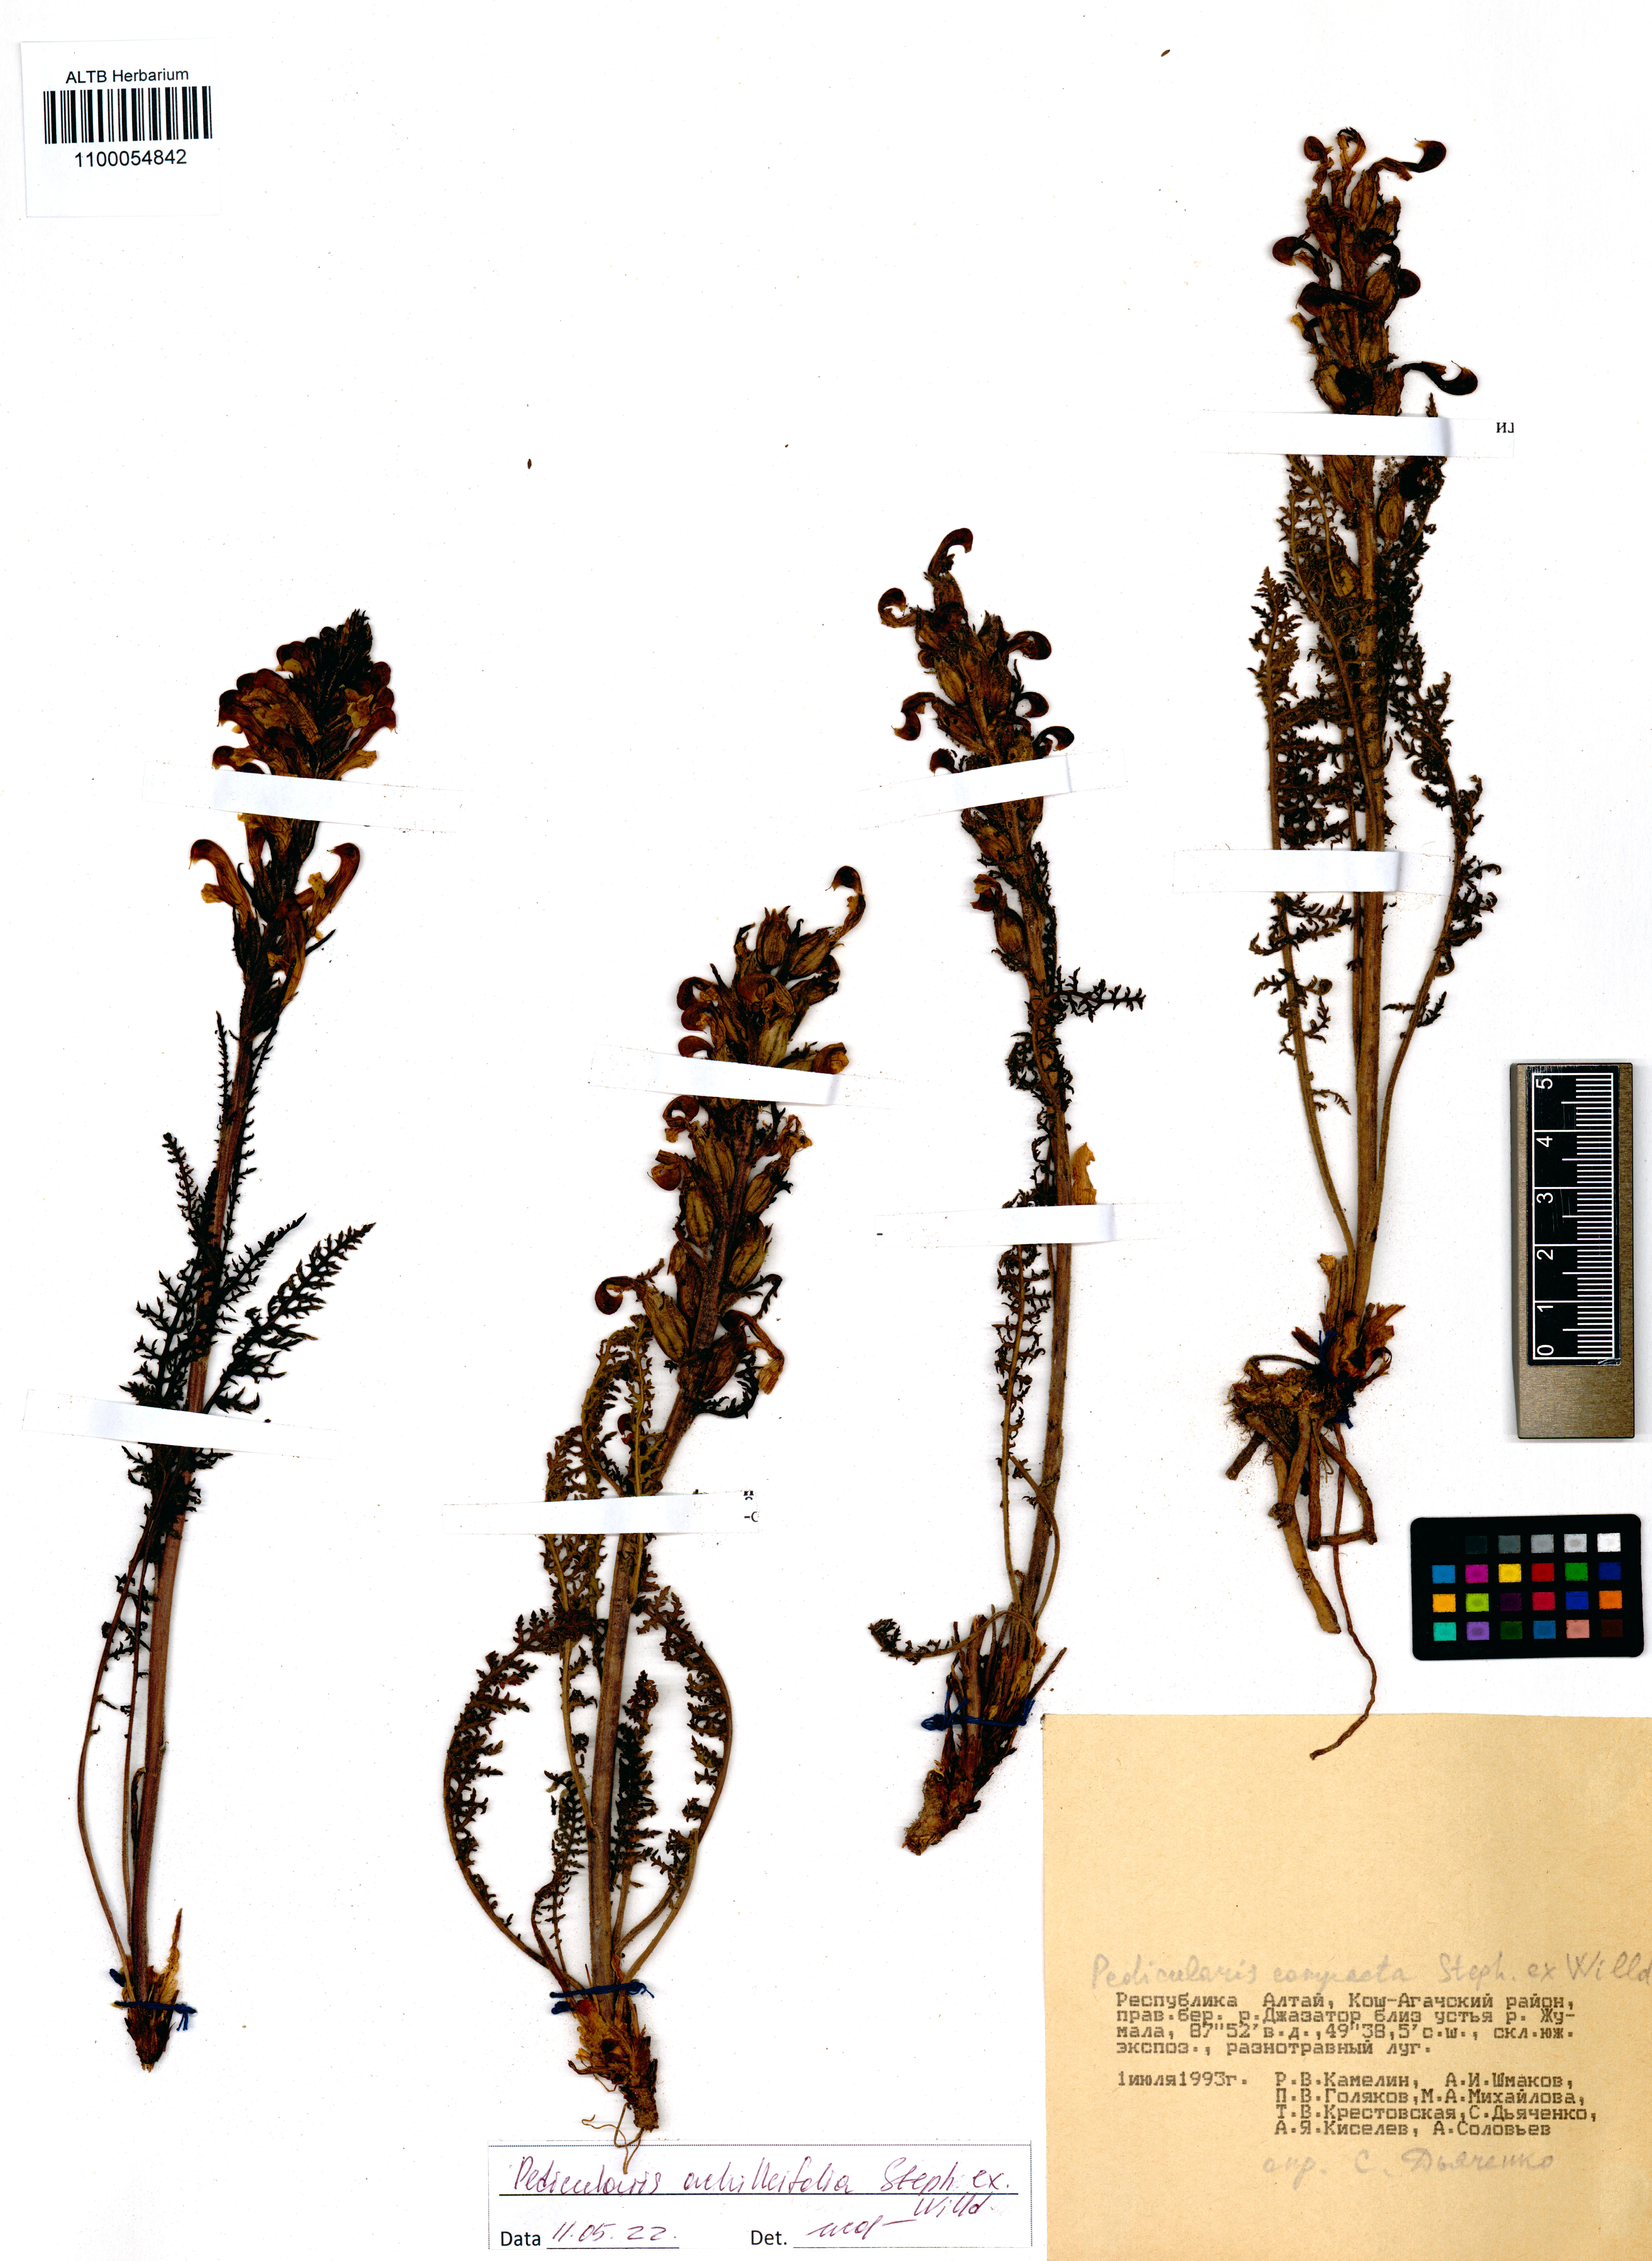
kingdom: Plantae
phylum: Tracheophyta
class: Magnoliopsida
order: Lamiales
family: Orobanchaceae
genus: Pedicularis
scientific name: Pedicularis achilleifolia
